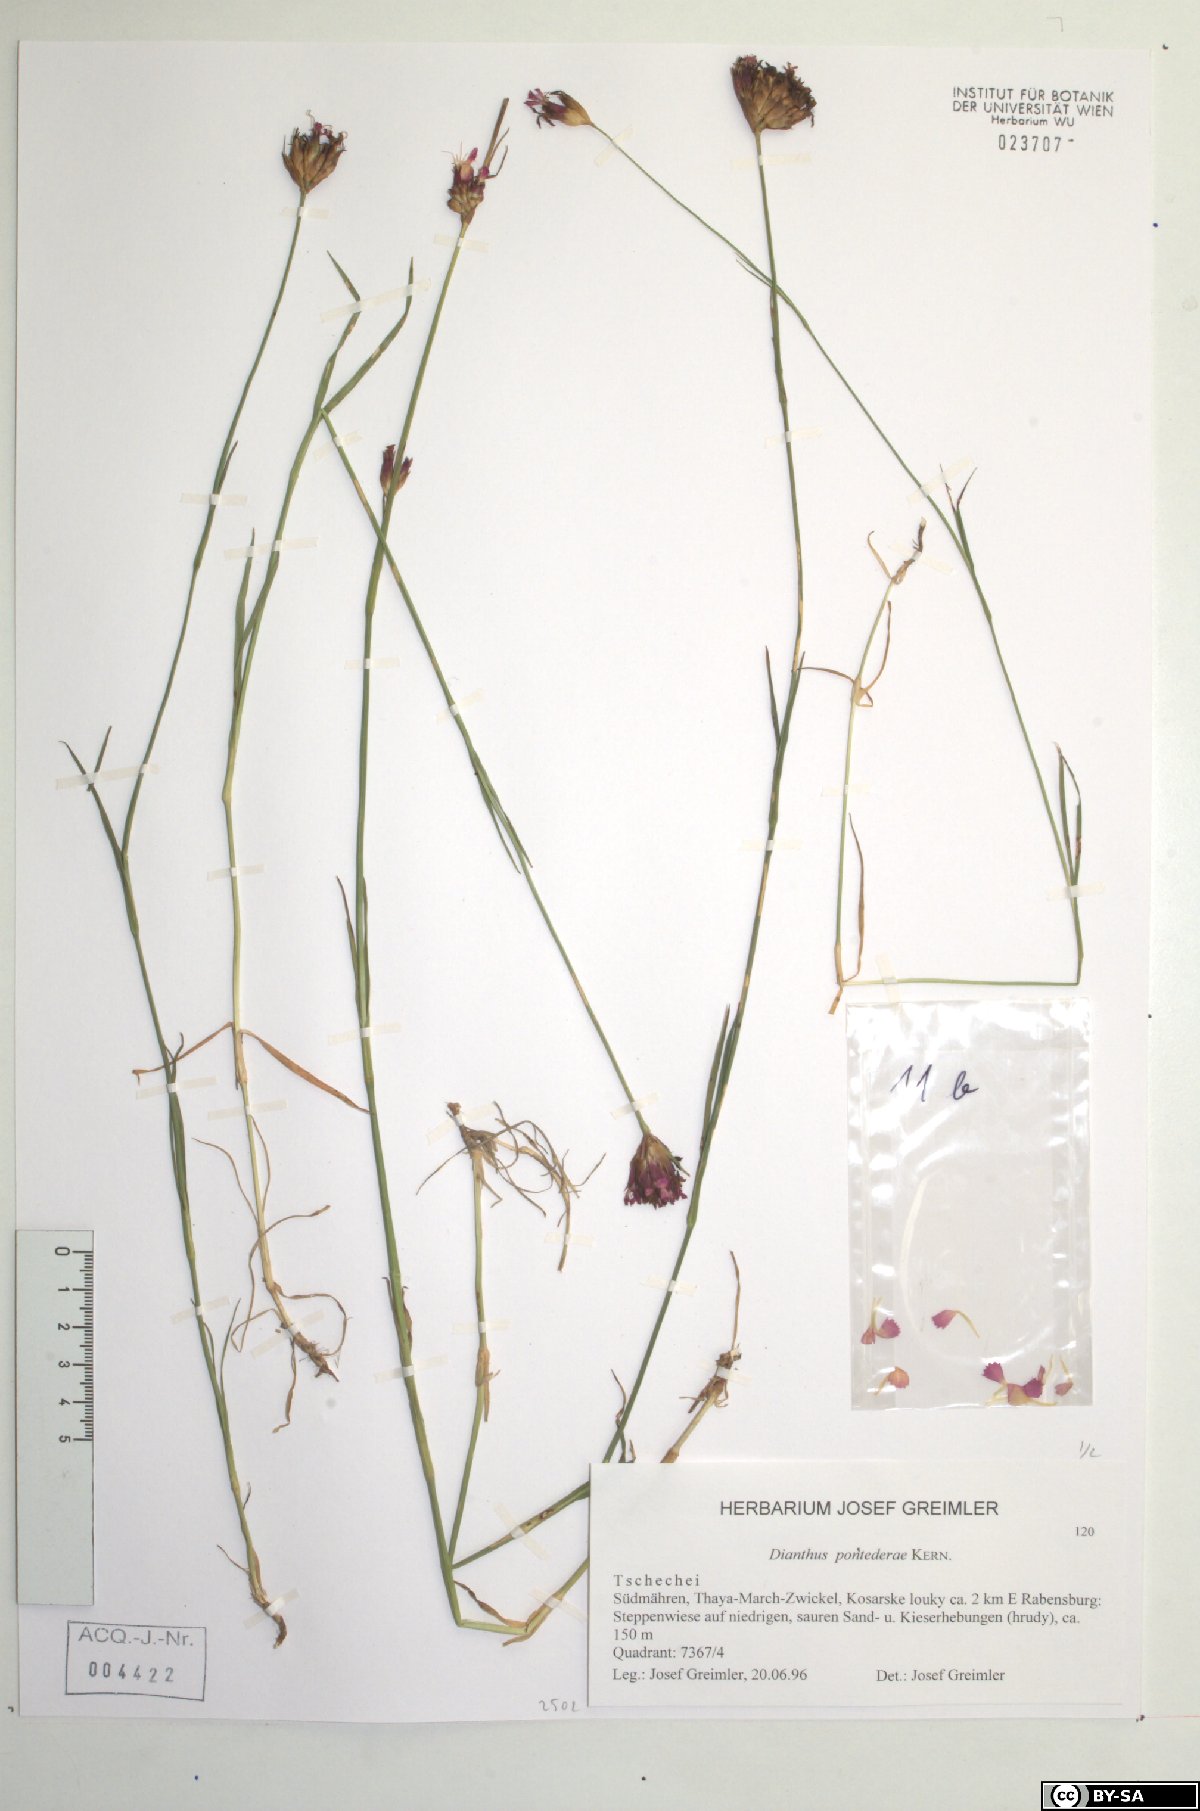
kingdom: Plantae
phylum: Tracheophyta
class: Magnoliopsida
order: Caryophyllales
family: Caryophyllaceae
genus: Dianthus
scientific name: Dianthus pontederae
